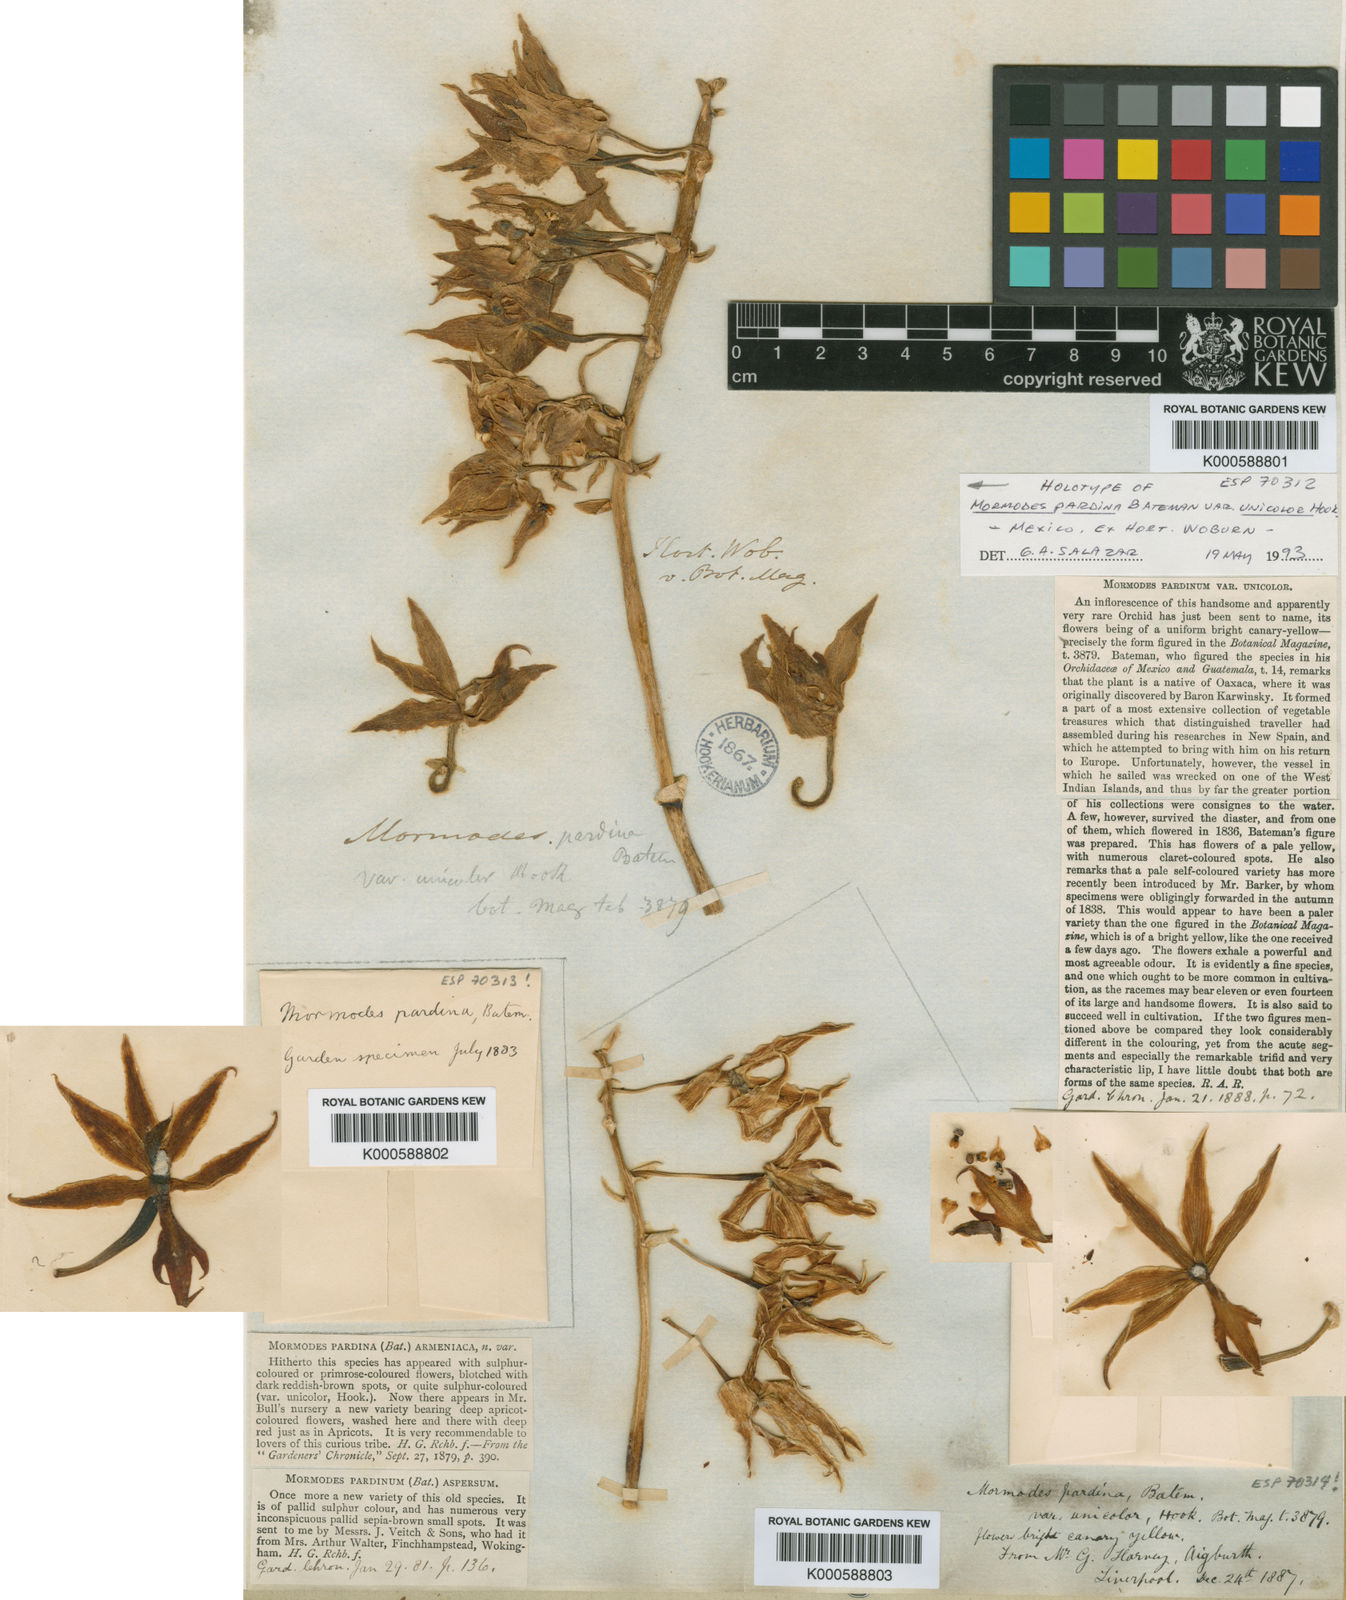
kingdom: Plantae
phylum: Tracheophyta
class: Liliopsida
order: Asparagales
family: Orchidaceae
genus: Mormodes
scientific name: Mormodes maculata
